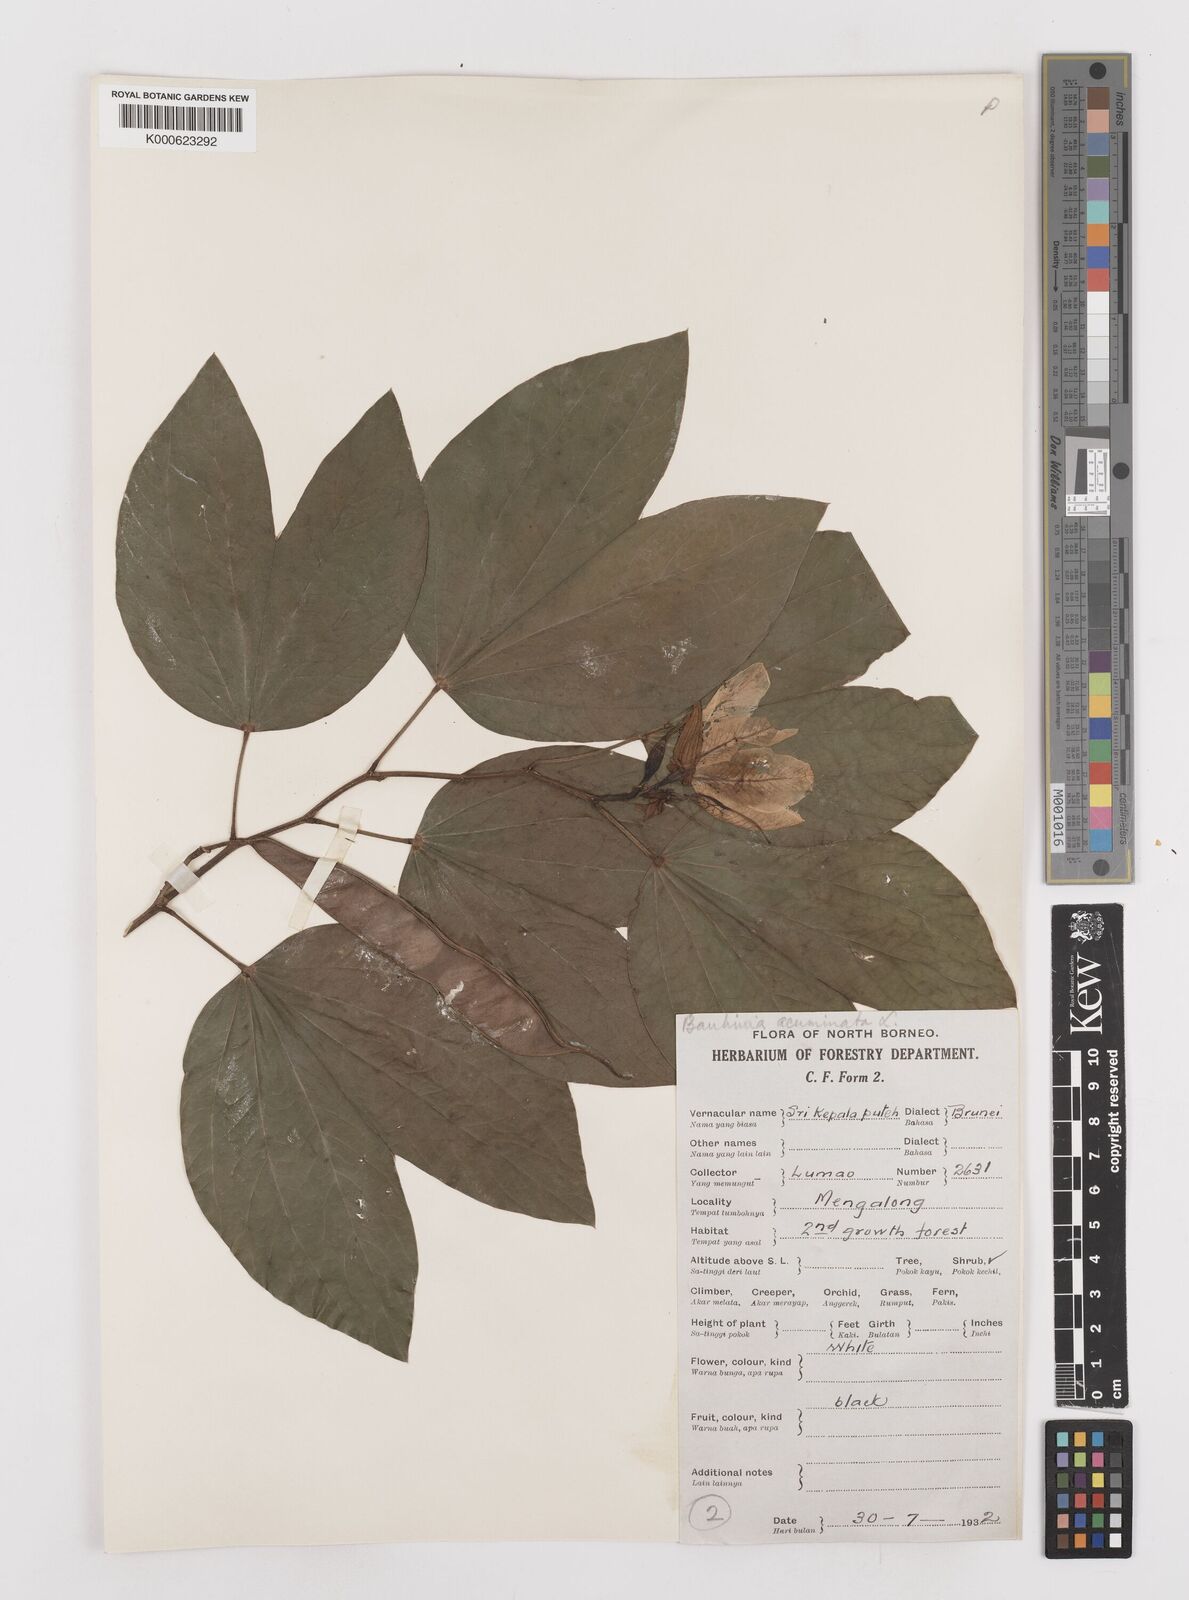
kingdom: Plantae
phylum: Tracheophyta
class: Magnoliopsida
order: Fabales
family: Fabaceae
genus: Bauhinia
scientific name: Bauhinia acuminata
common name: Dwarf white bauhinia
